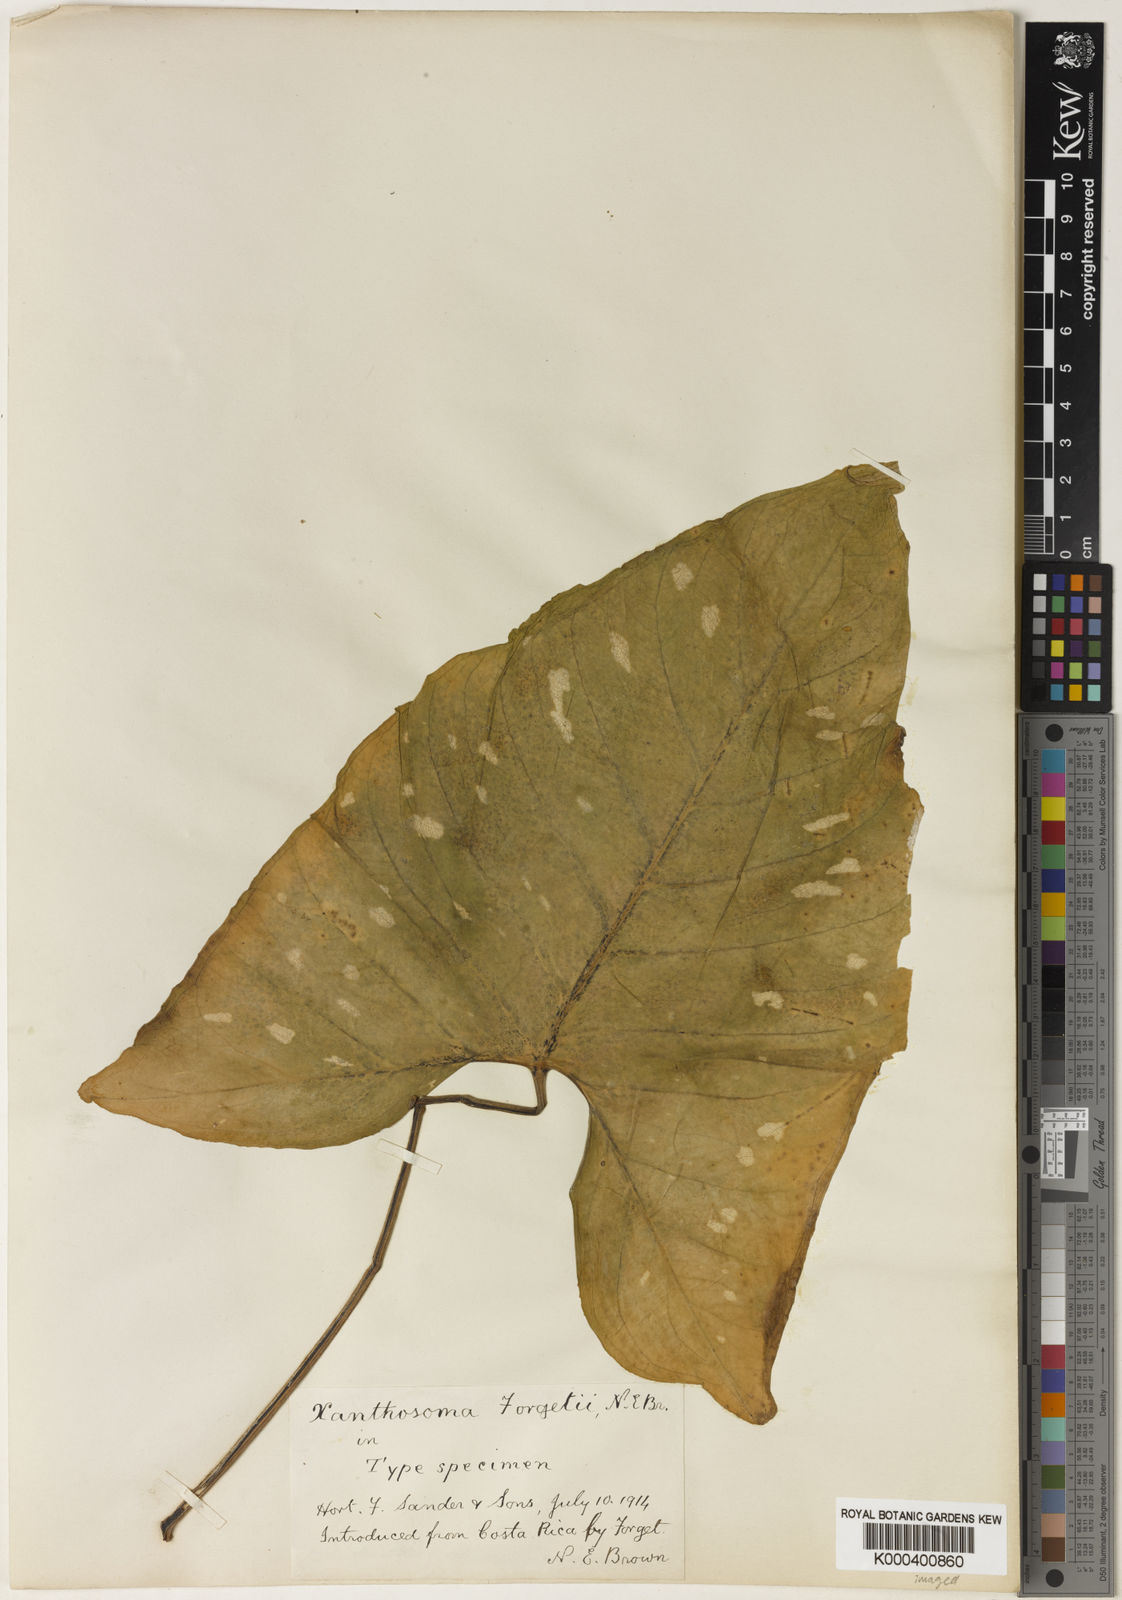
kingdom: Plantae
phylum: Tracheophyta
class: Liliopsida
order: Alismatales
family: Araceae
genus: Xanthosoma
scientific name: Xanthosoma
